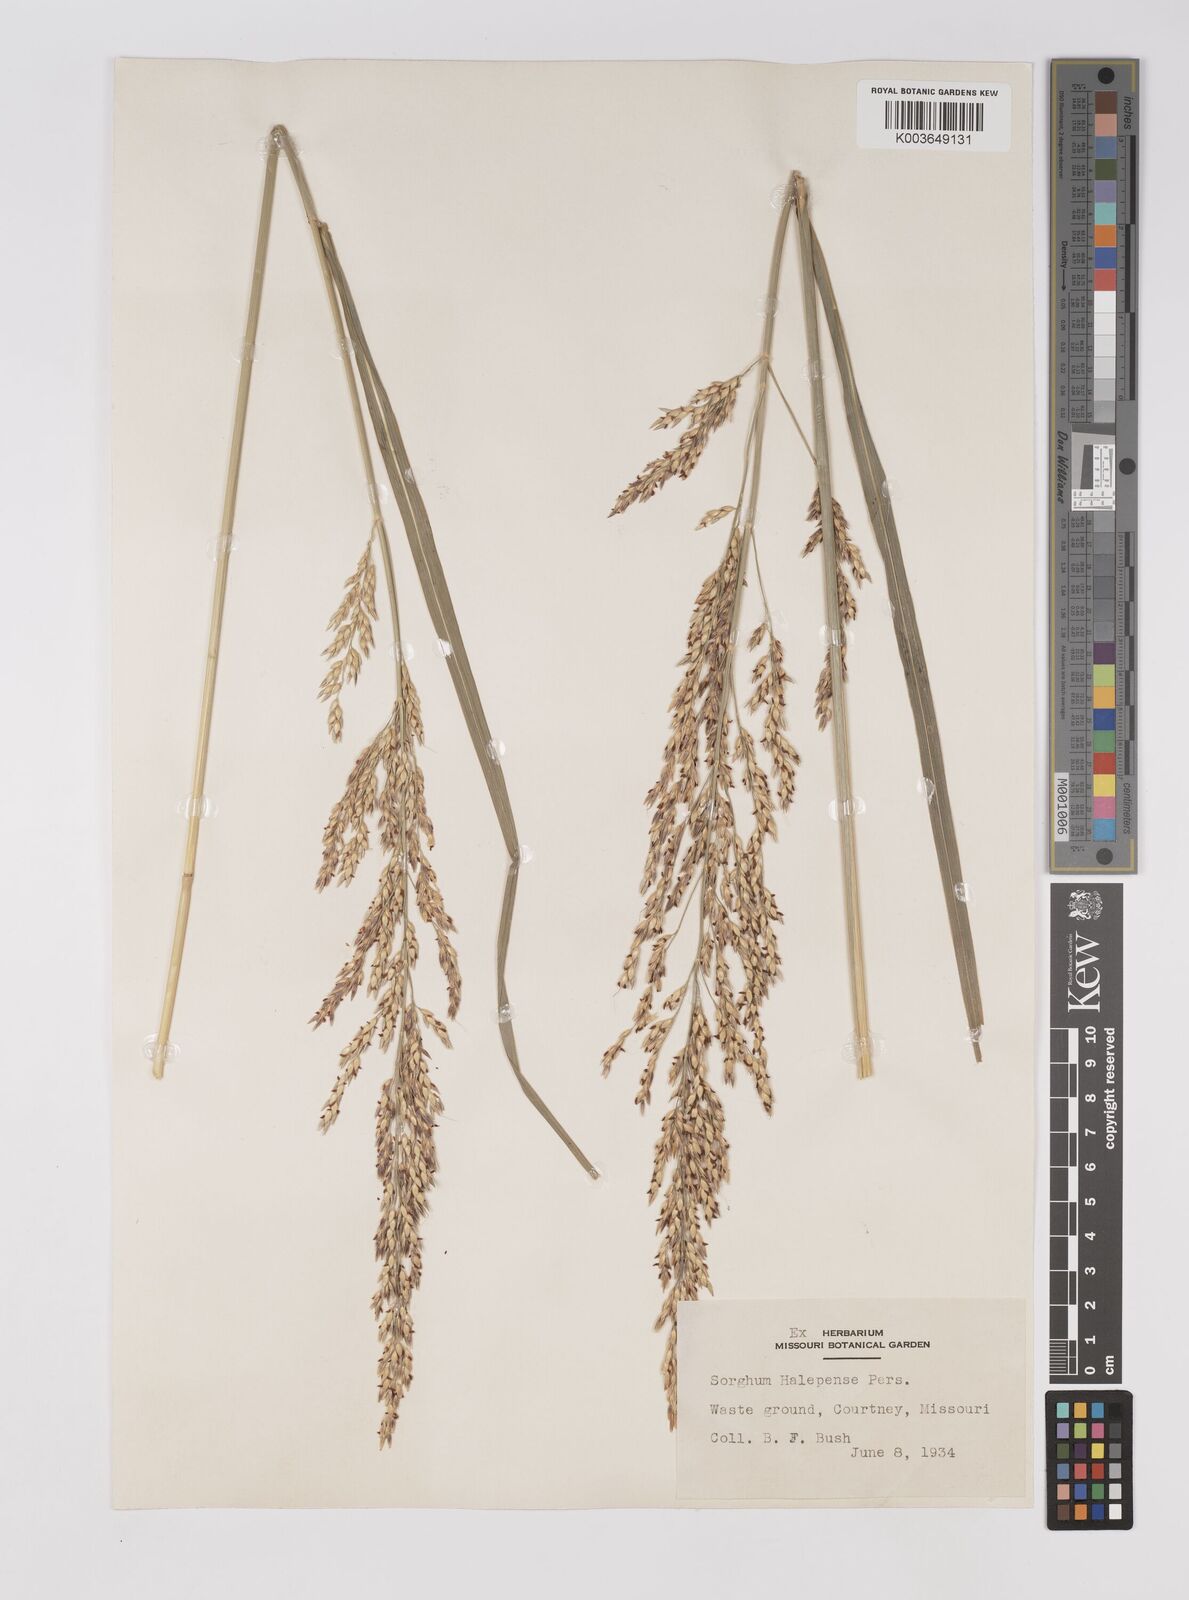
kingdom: Plantae
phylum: Tracheophyta
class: Liliopsida
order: Poales
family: Poaceae
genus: Sorghum
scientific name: Sorghum halepense
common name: Johnson-grass
